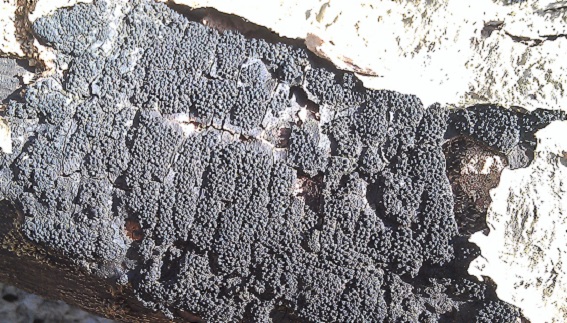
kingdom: Fungi
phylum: Ascomycota
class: Sordariomycetes
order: Xylariales
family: Diatrypaceae
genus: Eutypa
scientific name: Eutypa spinosa
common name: grov kulskorpe
